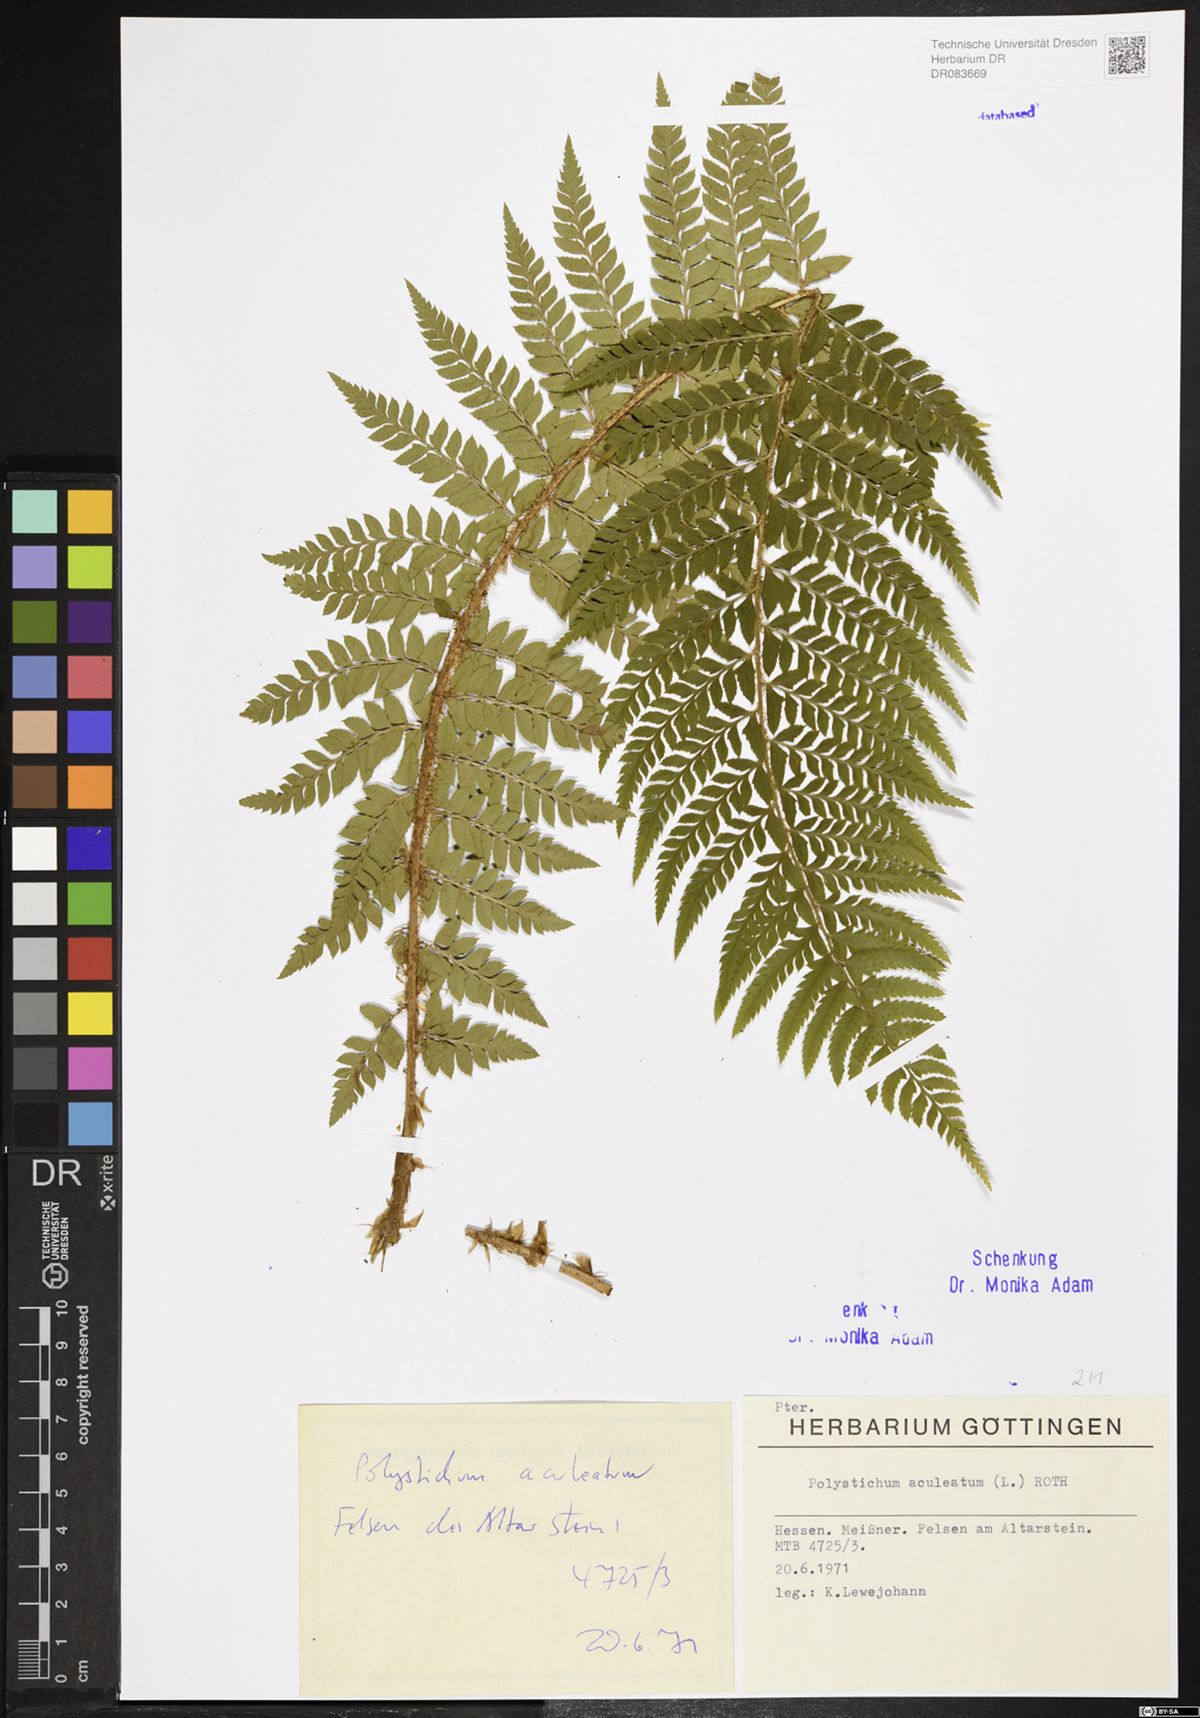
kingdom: Plantae
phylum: Tracheophyta
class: Polypodiopsida
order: Polypodiales
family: Dryopteridaceae
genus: Polystichum
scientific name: Polystichum aculeatum
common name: Hard shield-fern
